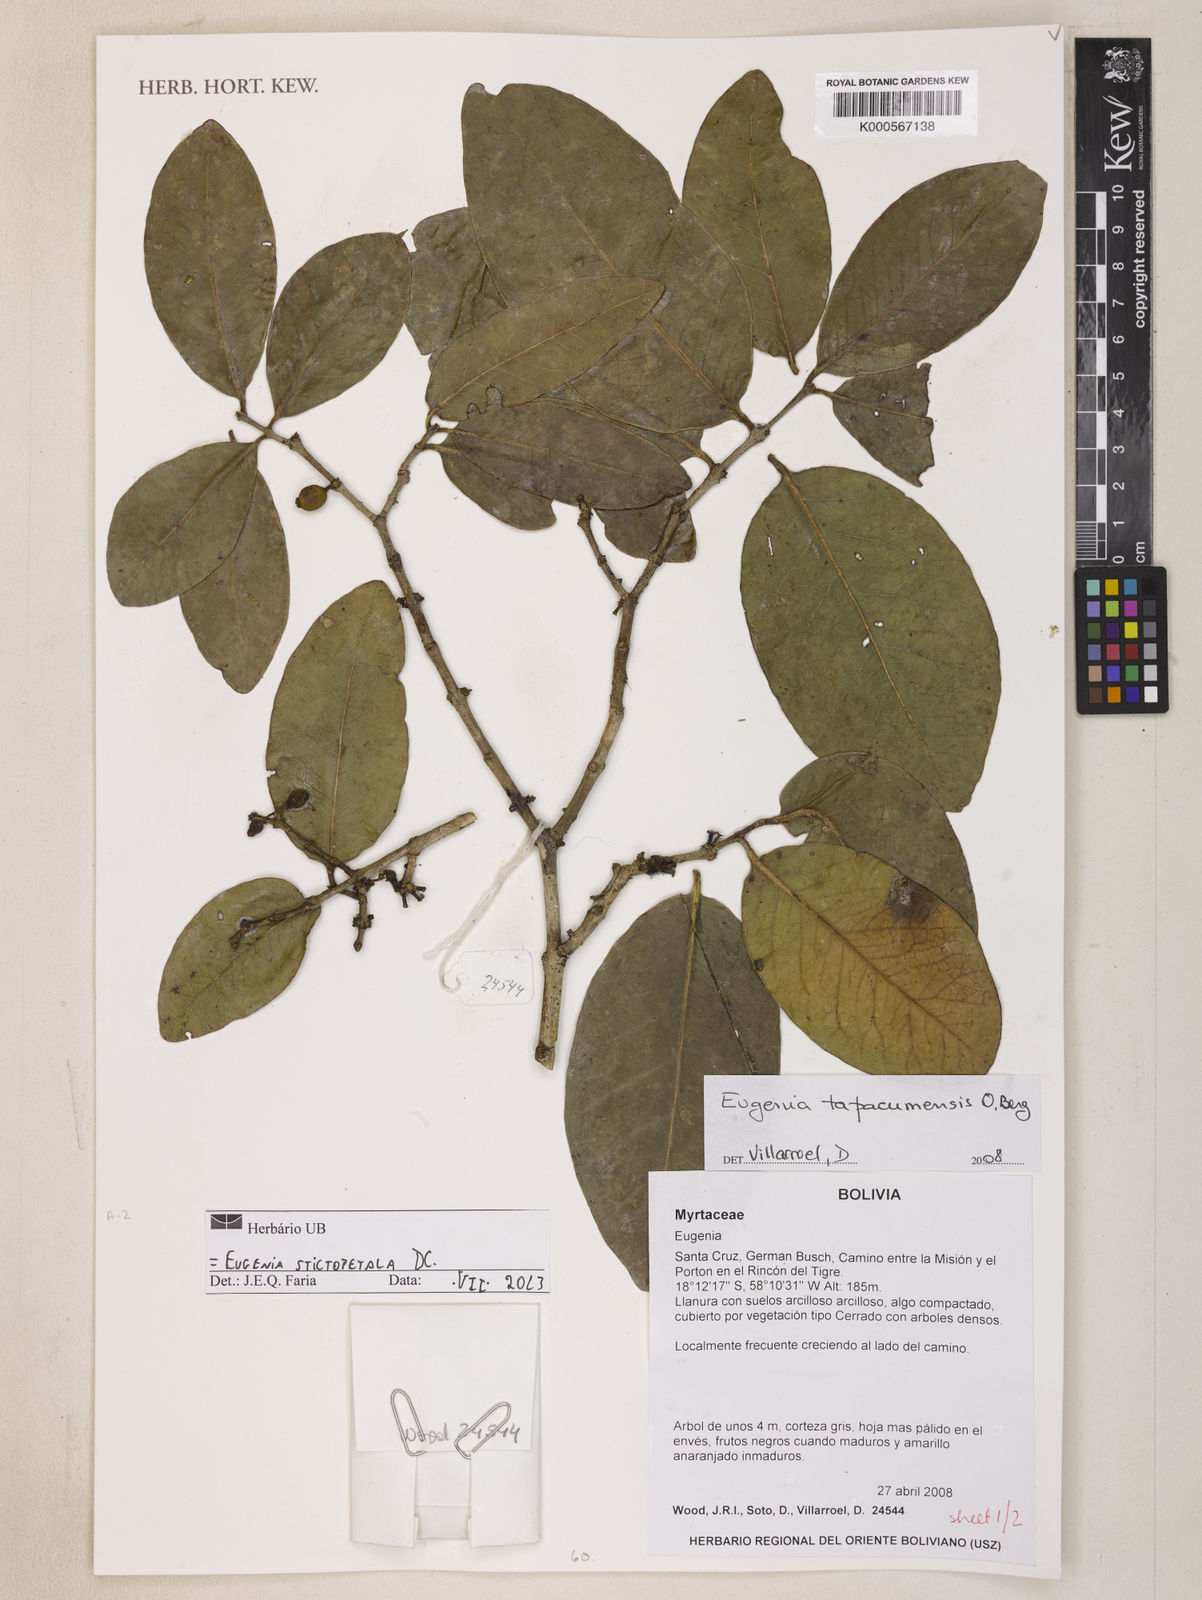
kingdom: Plantae
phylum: Tracheophyta
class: Magnoliopsida
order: Myrtales
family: Myrtaceae
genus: Eugenia
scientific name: Eugenia stictopetala
